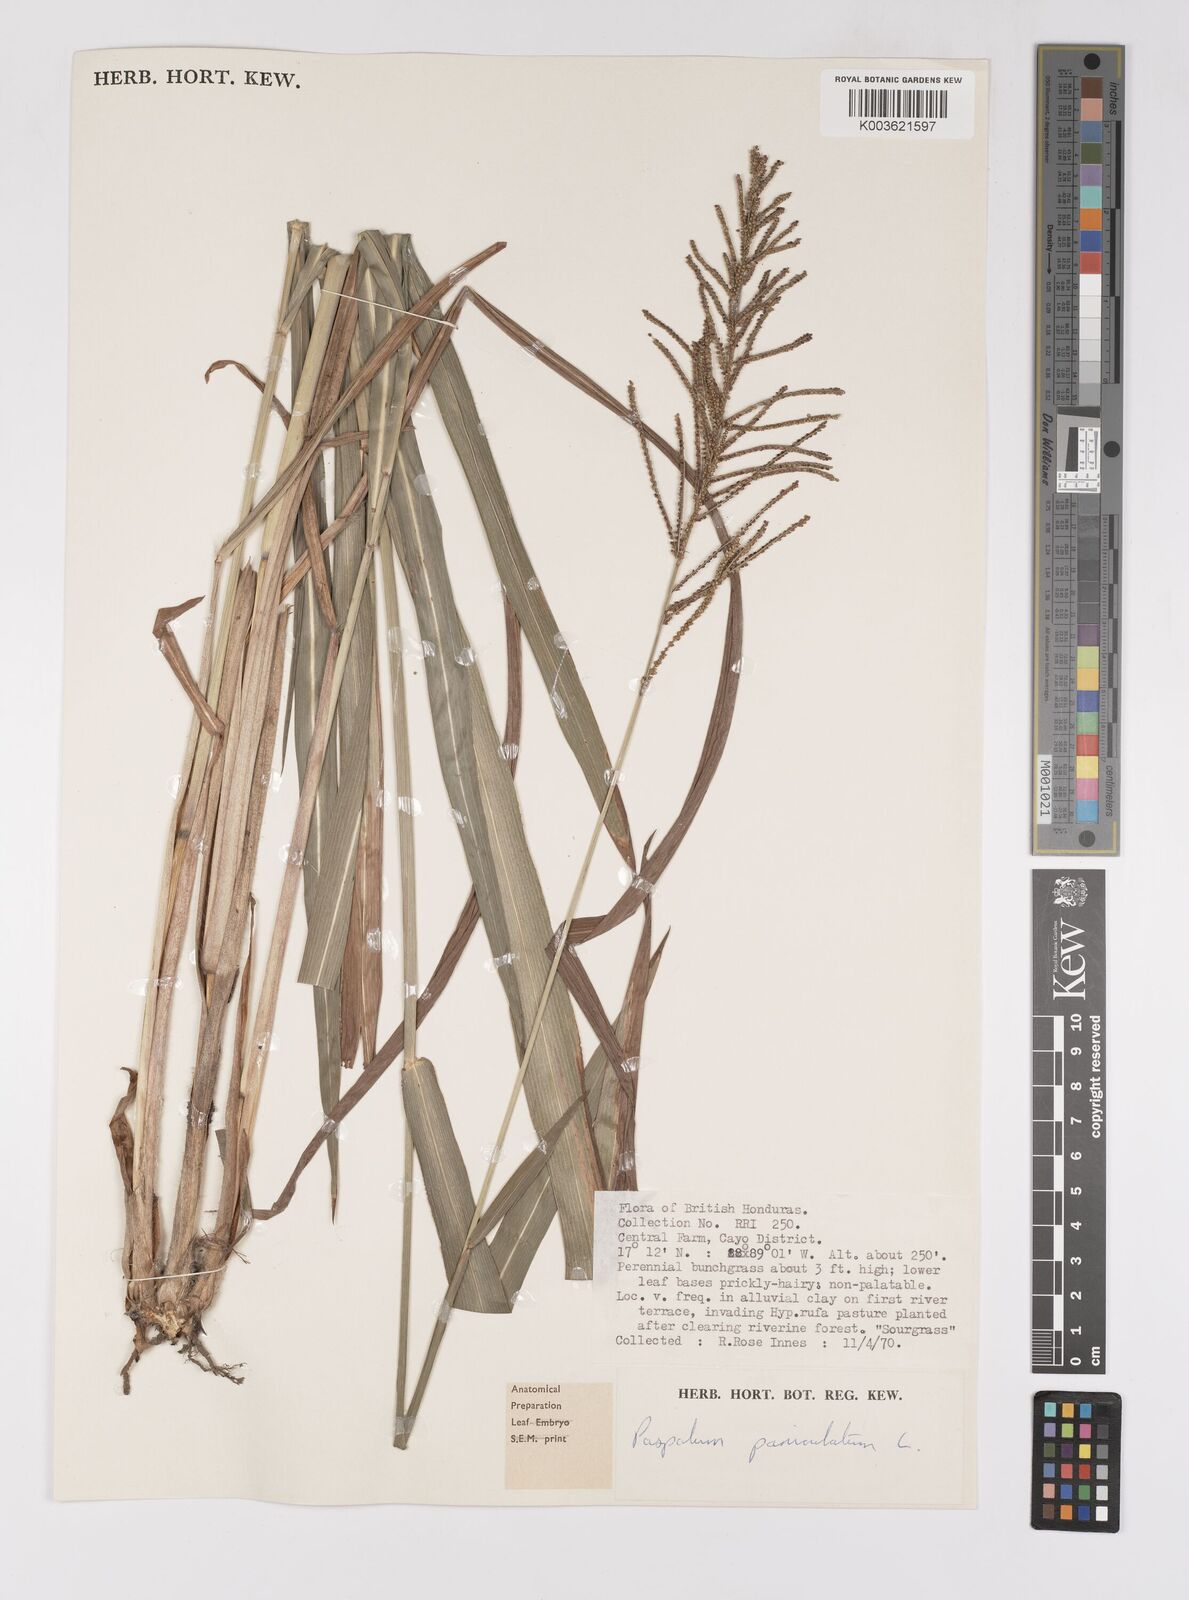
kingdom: Plantae
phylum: Tracheophyta
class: Liliopsida
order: Poales
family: Poaceae
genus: Paspalum
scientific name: Paspalum paniculatum
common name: Arrocillo
